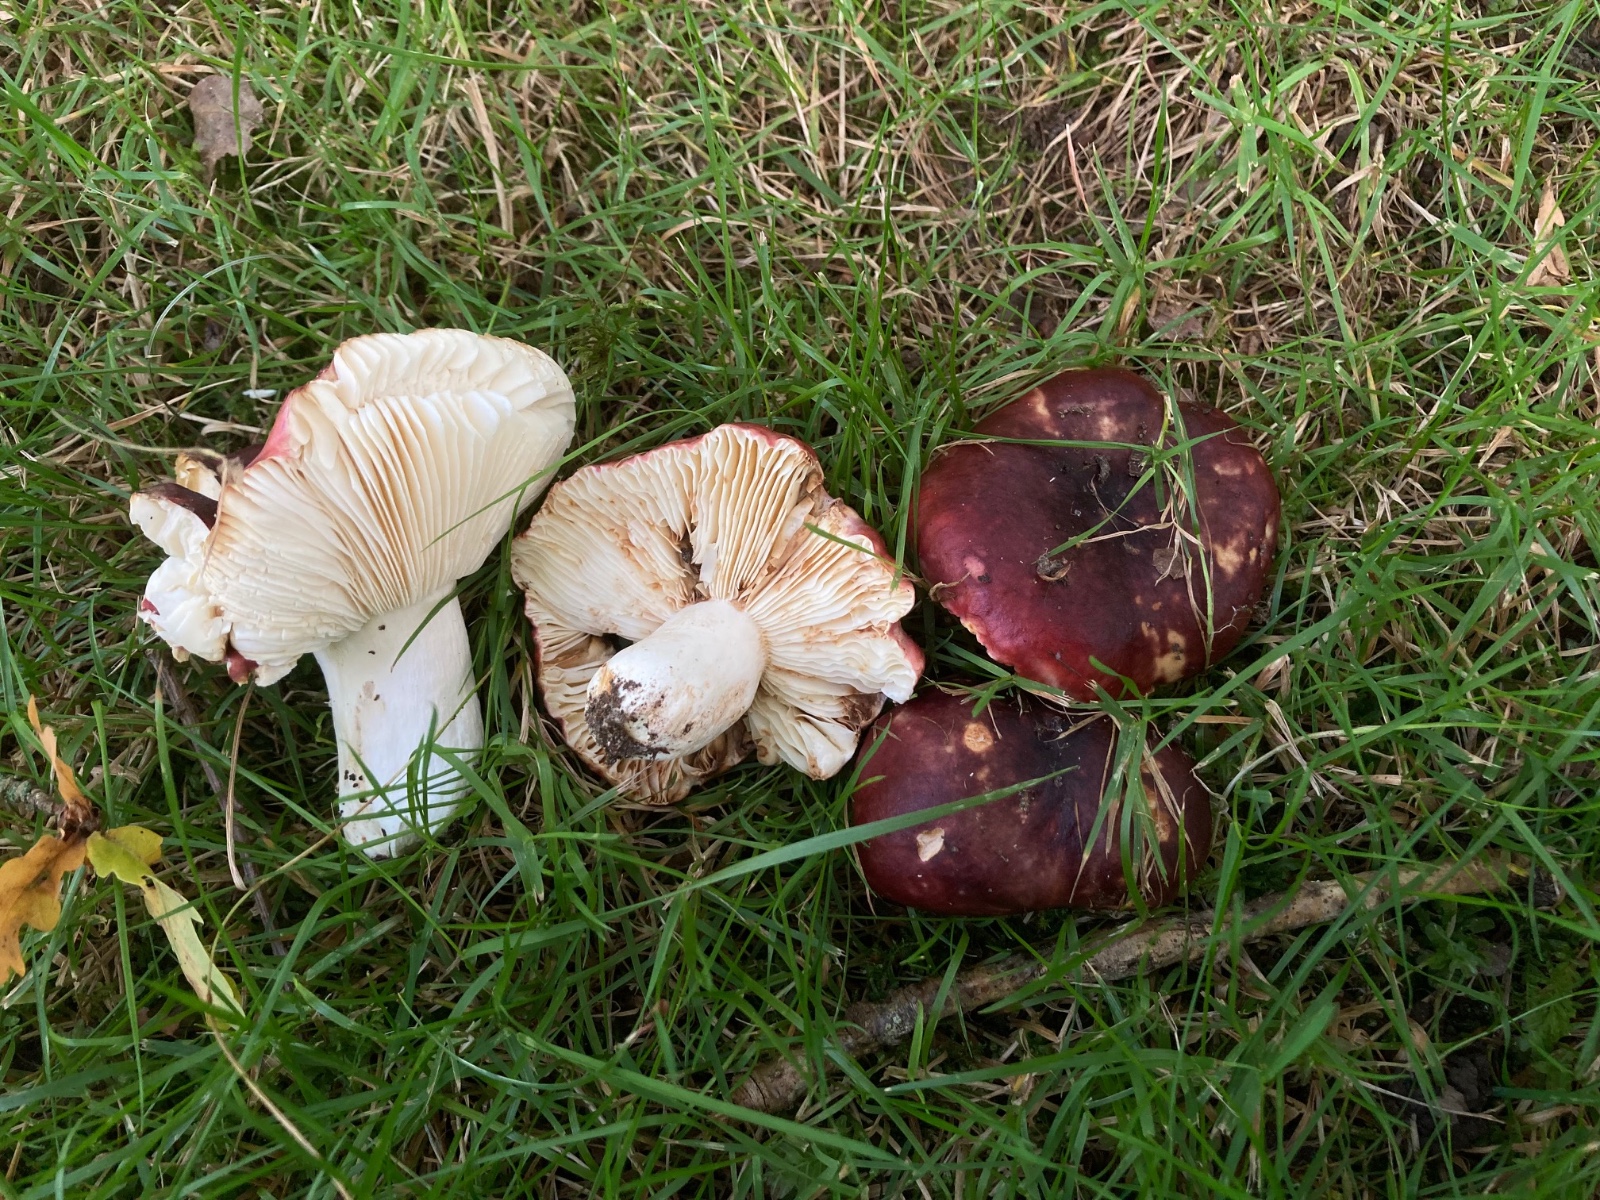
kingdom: Fungi
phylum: Basidiomycota
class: Agaricomycetes
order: Russulales
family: Russulaceae
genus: Russula
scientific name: Russula atropurpurea
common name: purpurbroget skørhat
